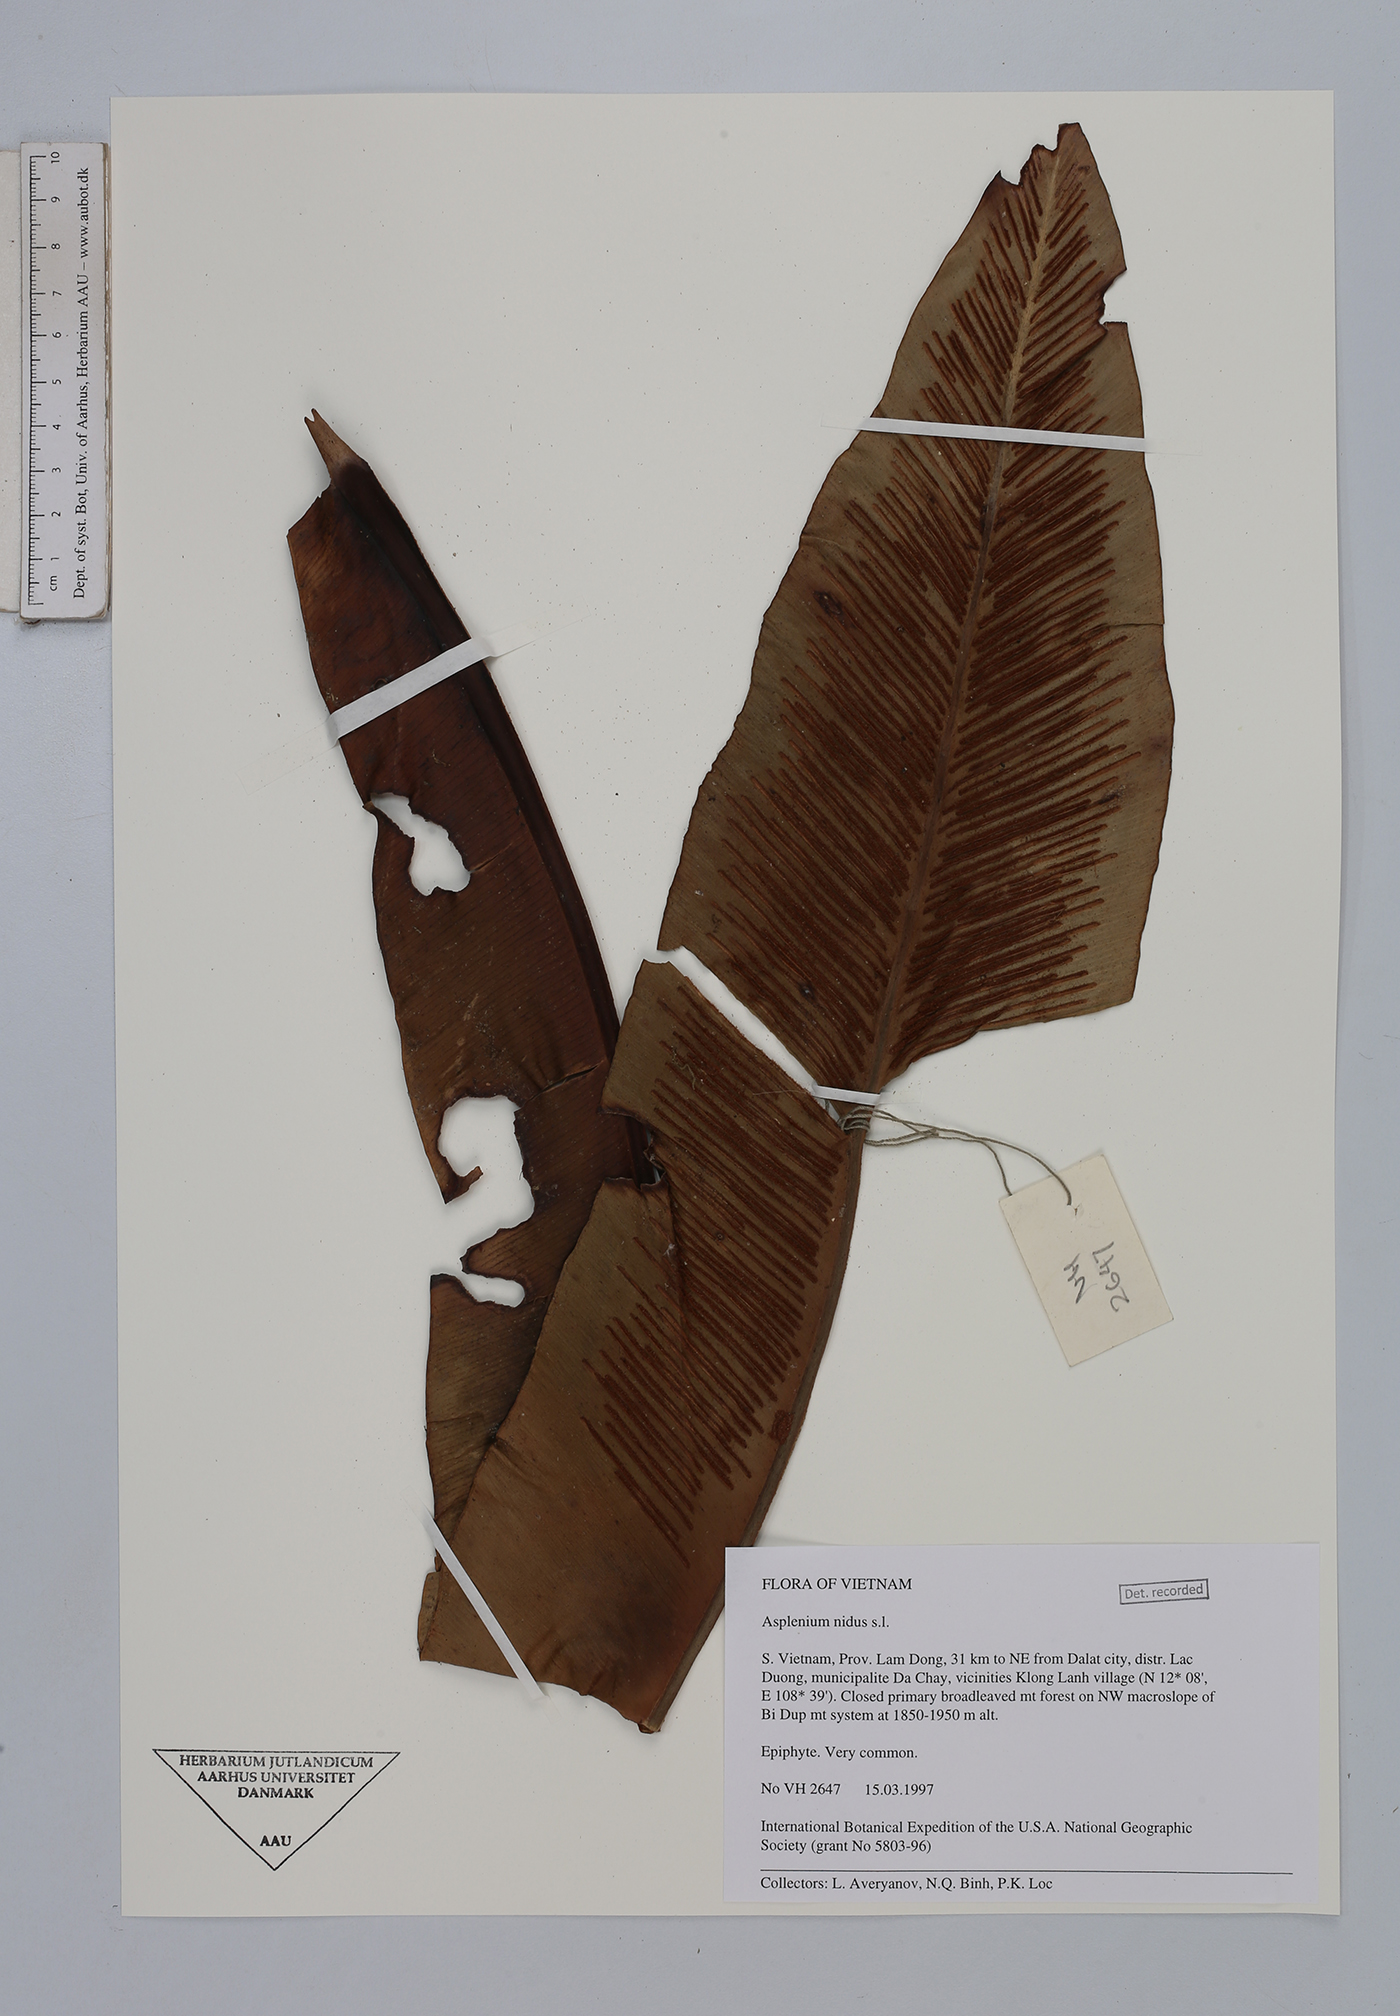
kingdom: Plantae
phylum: Tracheophyta
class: Polypodiopsida
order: Polypodiales
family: Aspleniaceae
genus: Asplenium
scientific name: Asplenium nidus
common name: Bird's-nest fern
